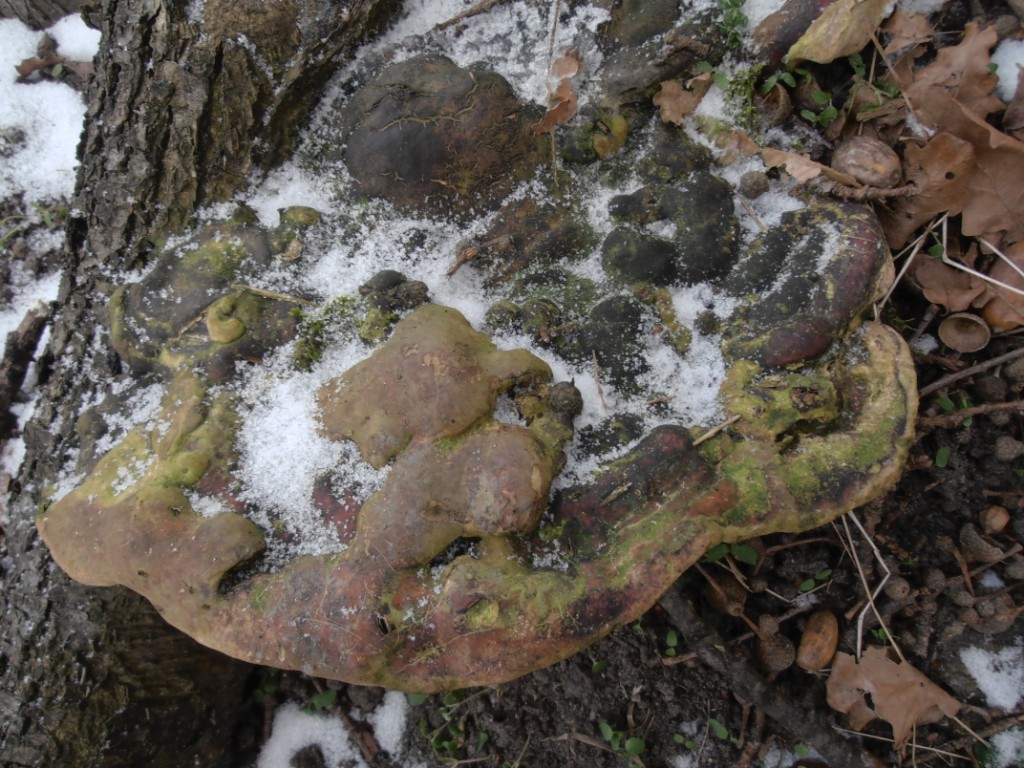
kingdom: Fungi
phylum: Basidiomycota
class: Agaricomycetes
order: Polyporales
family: Polyporaceae
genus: Vanderbylia
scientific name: Vanderbylia fraxinea
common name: stor kanelporesvamp
